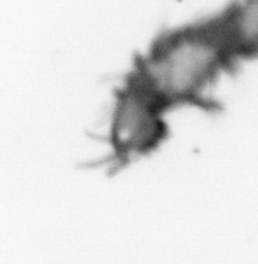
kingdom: Animalia
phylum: Annelida
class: Polychaeta
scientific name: Polychaeta
